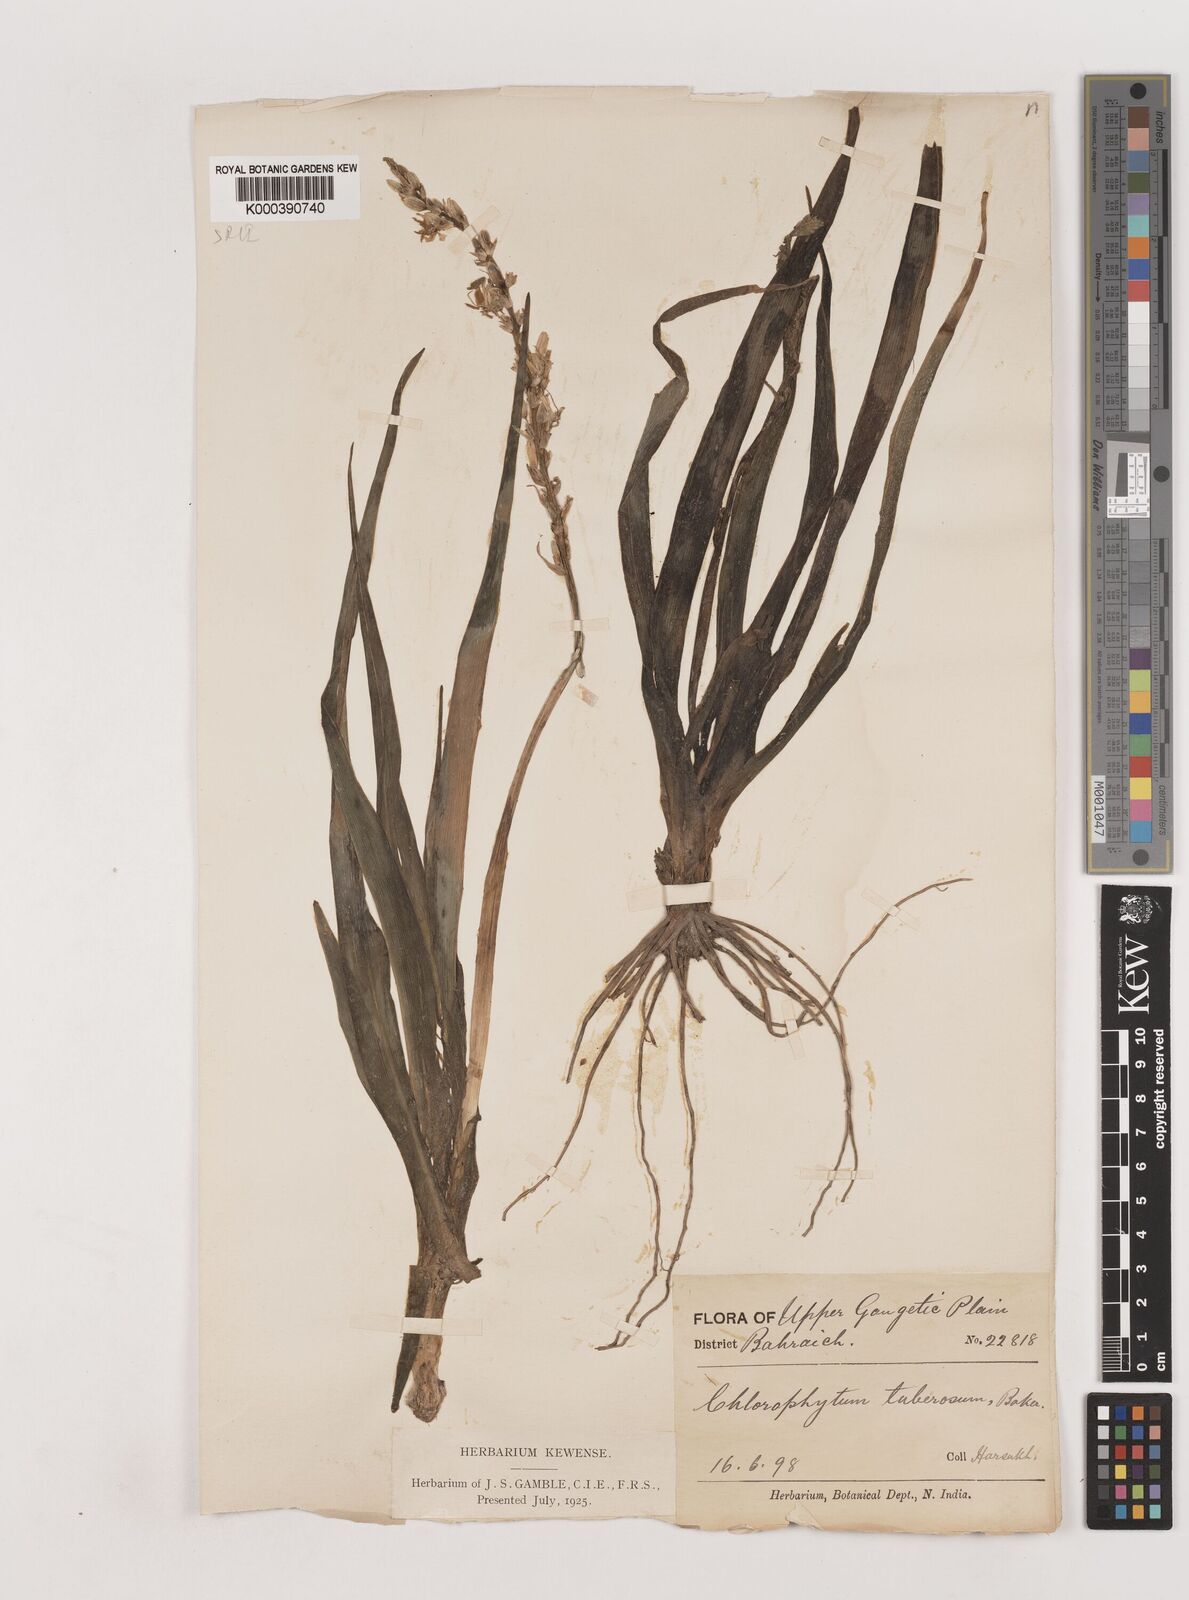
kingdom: Plantae
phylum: Tracheophyta
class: Liliopsida
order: Asparagales
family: Asparagaceae
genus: Chlorophytum
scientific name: Chlorophytum tuberosum
